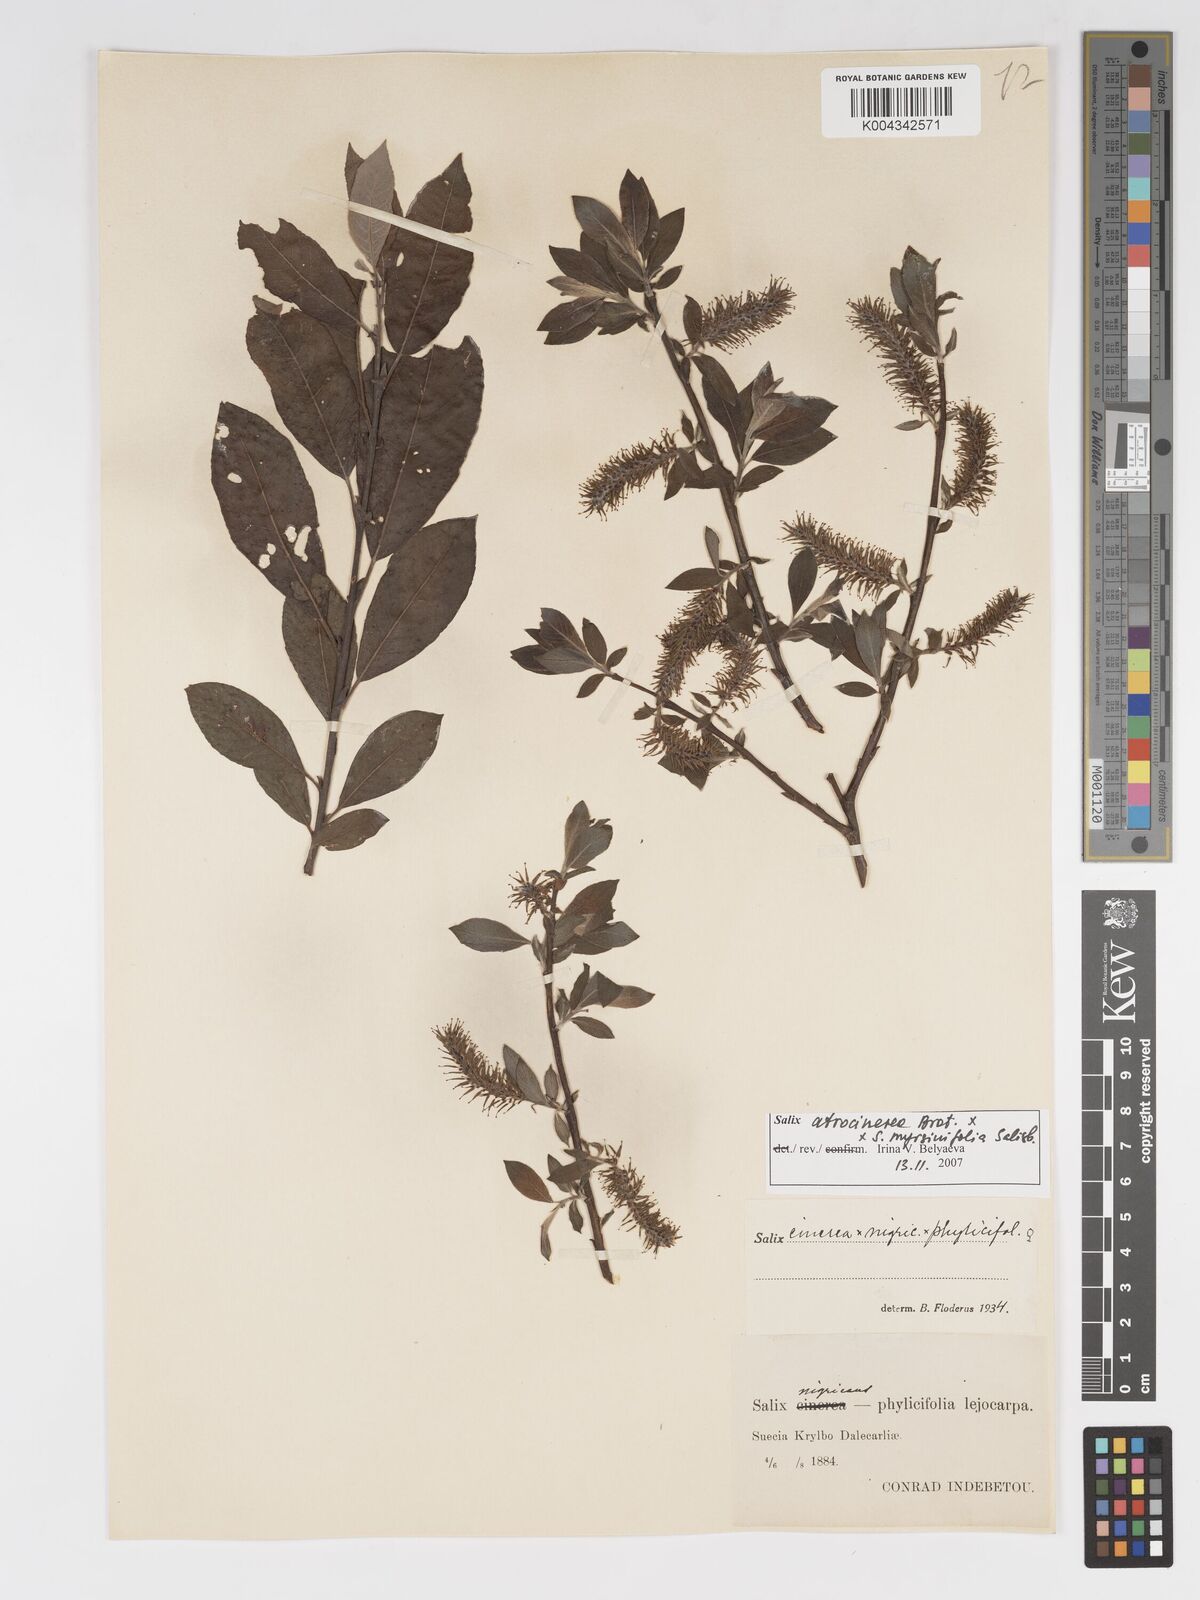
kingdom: Plantae
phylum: Tracheophyta
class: Magnoliopsida
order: Malpighiales
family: Salicaceae
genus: Salix
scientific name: Salix cinerea
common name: Common sallow
